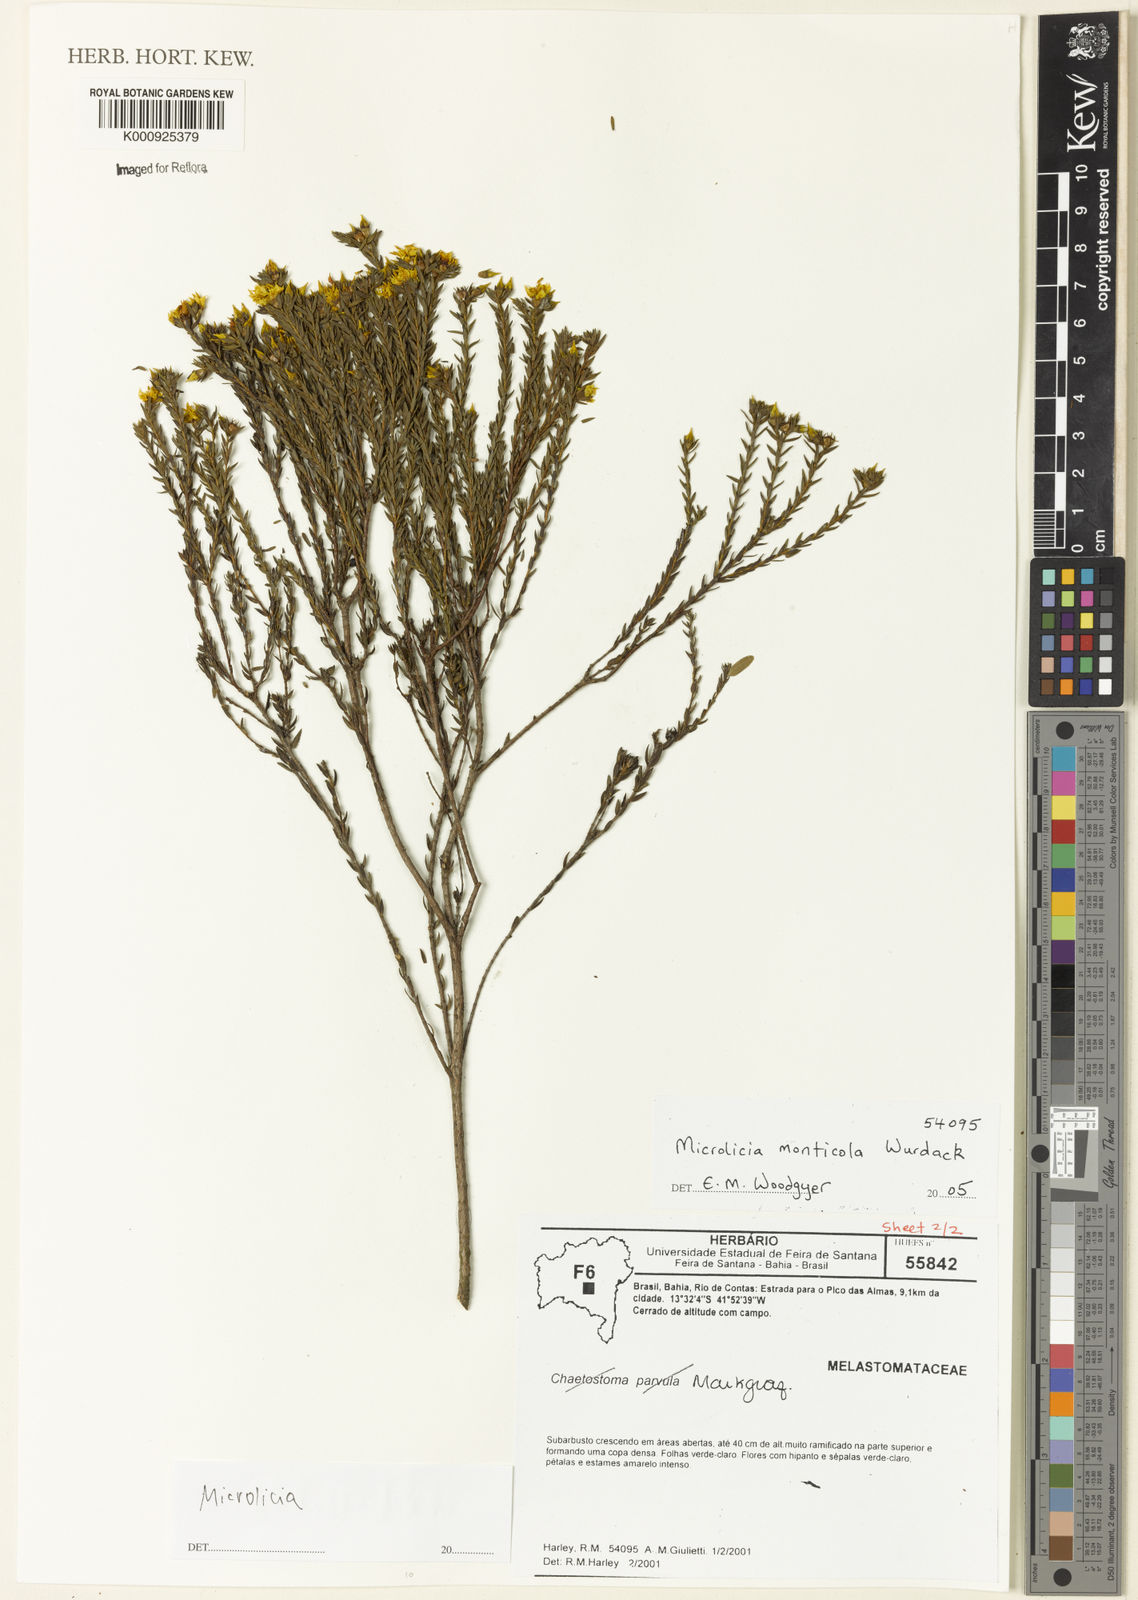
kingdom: Plantae
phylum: Tracheophyta
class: Magnoliopsida
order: Myrtales
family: Melastomataceae
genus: Microlicia
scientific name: Microlicia monticola
